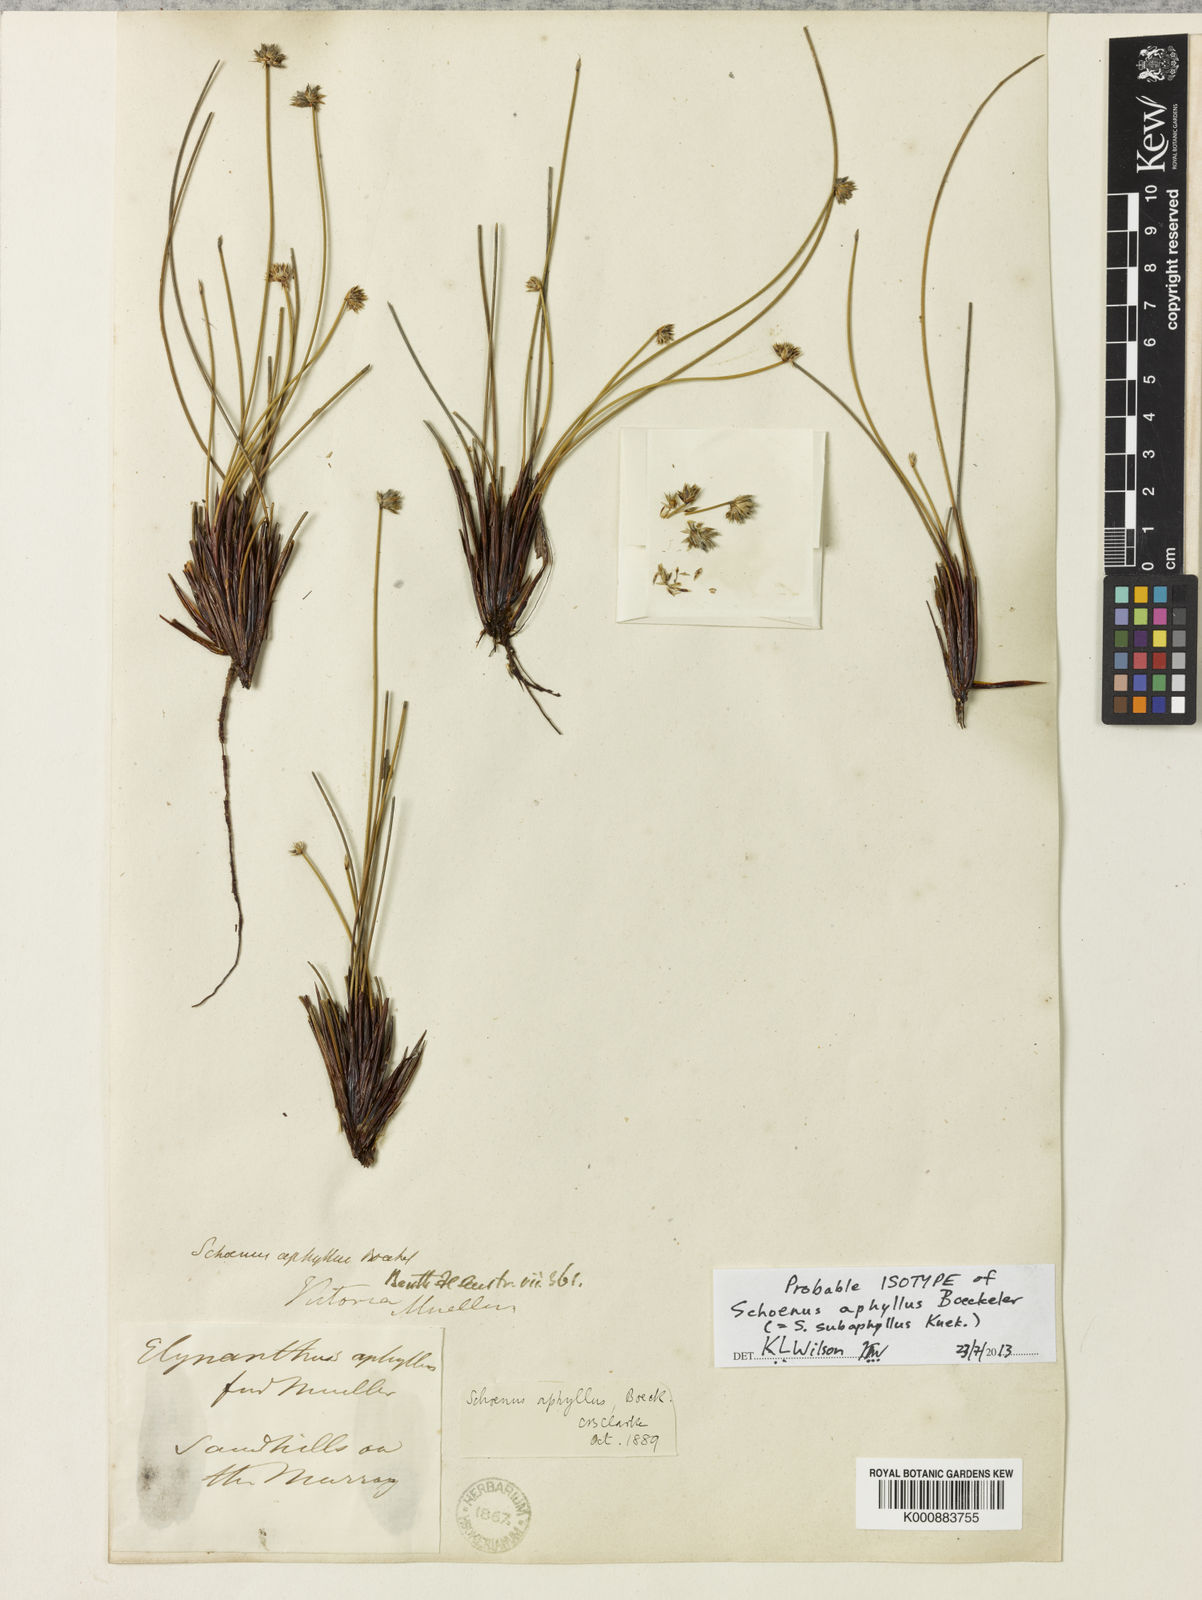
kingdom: Plantae
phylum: Tracheophyta
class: Liliopsida
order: Poales
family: Cyperaceae
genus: Schoenus
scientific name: Schoenus
